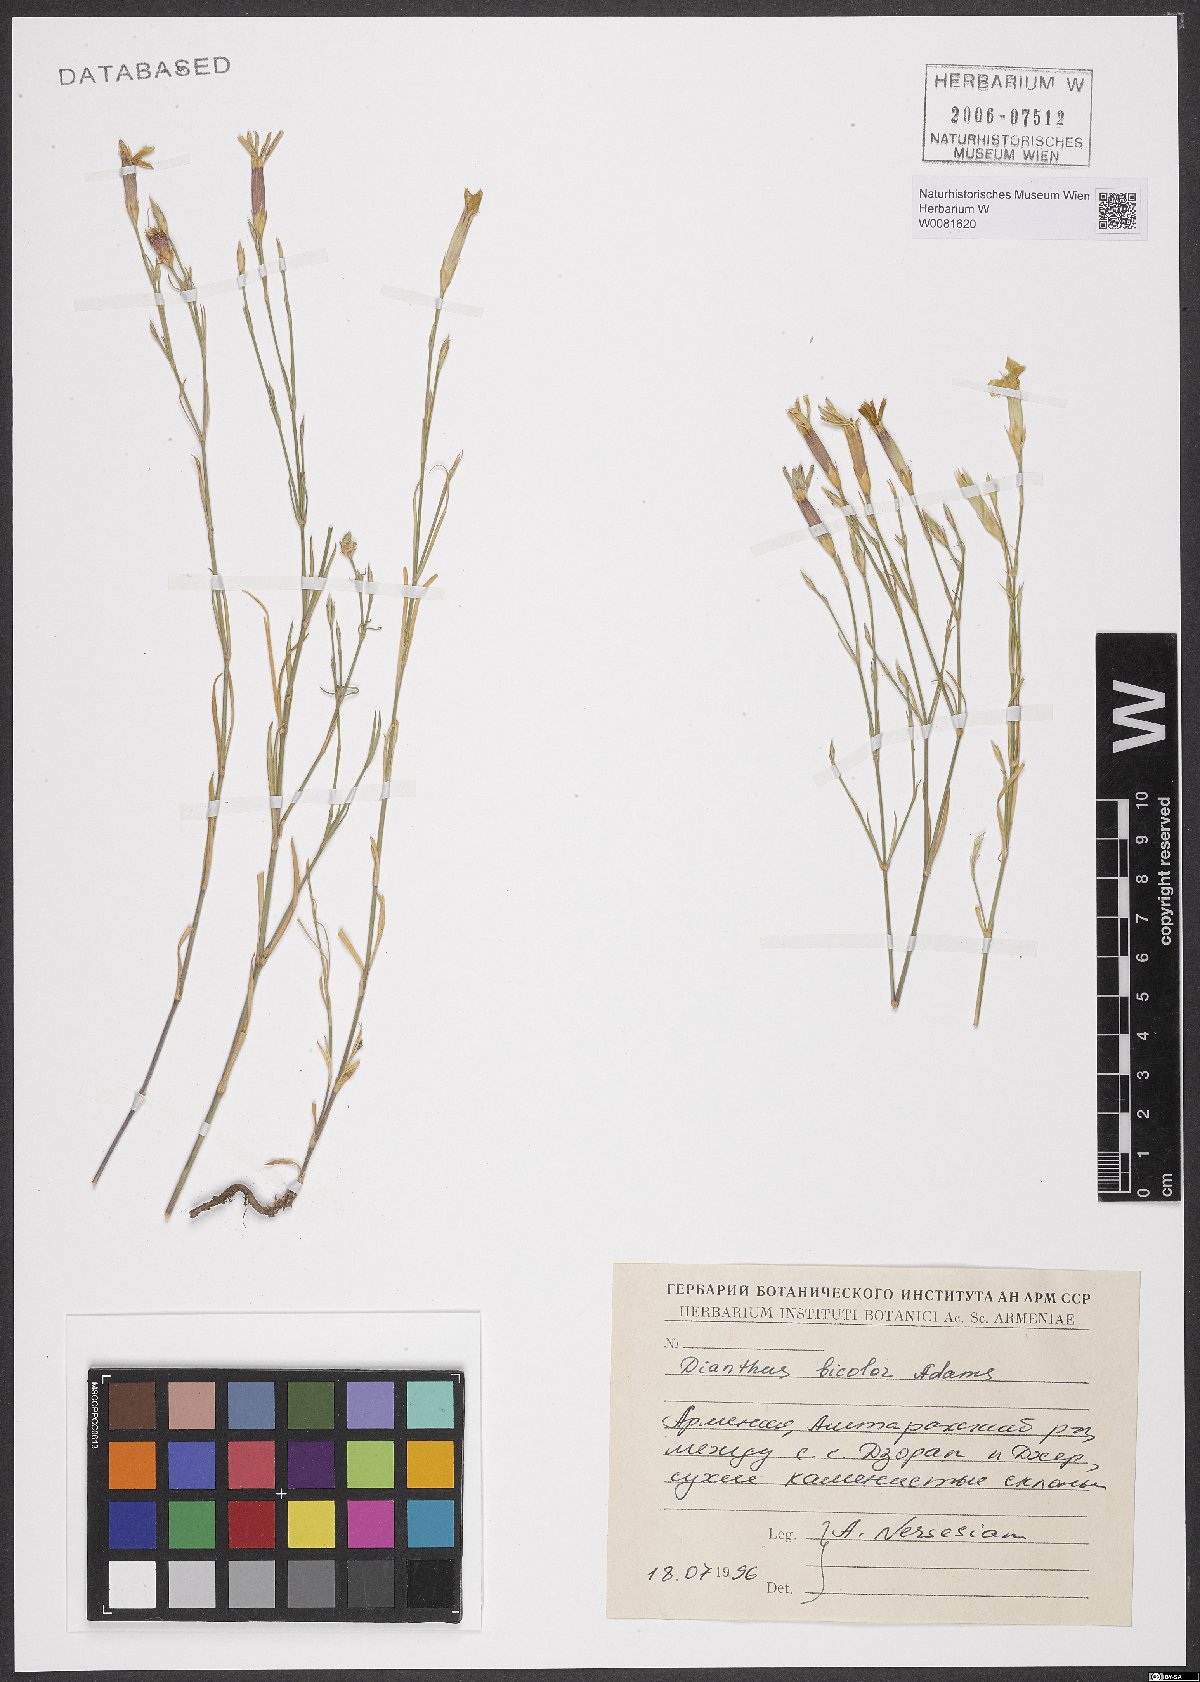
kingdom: Plantae
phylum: Tracheophyta
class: Magnoliopsida
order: Caryophyllales
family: Caryophyllaceae
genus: Dianthus
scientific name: Dianthus bicolor
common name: Bicolour pink
